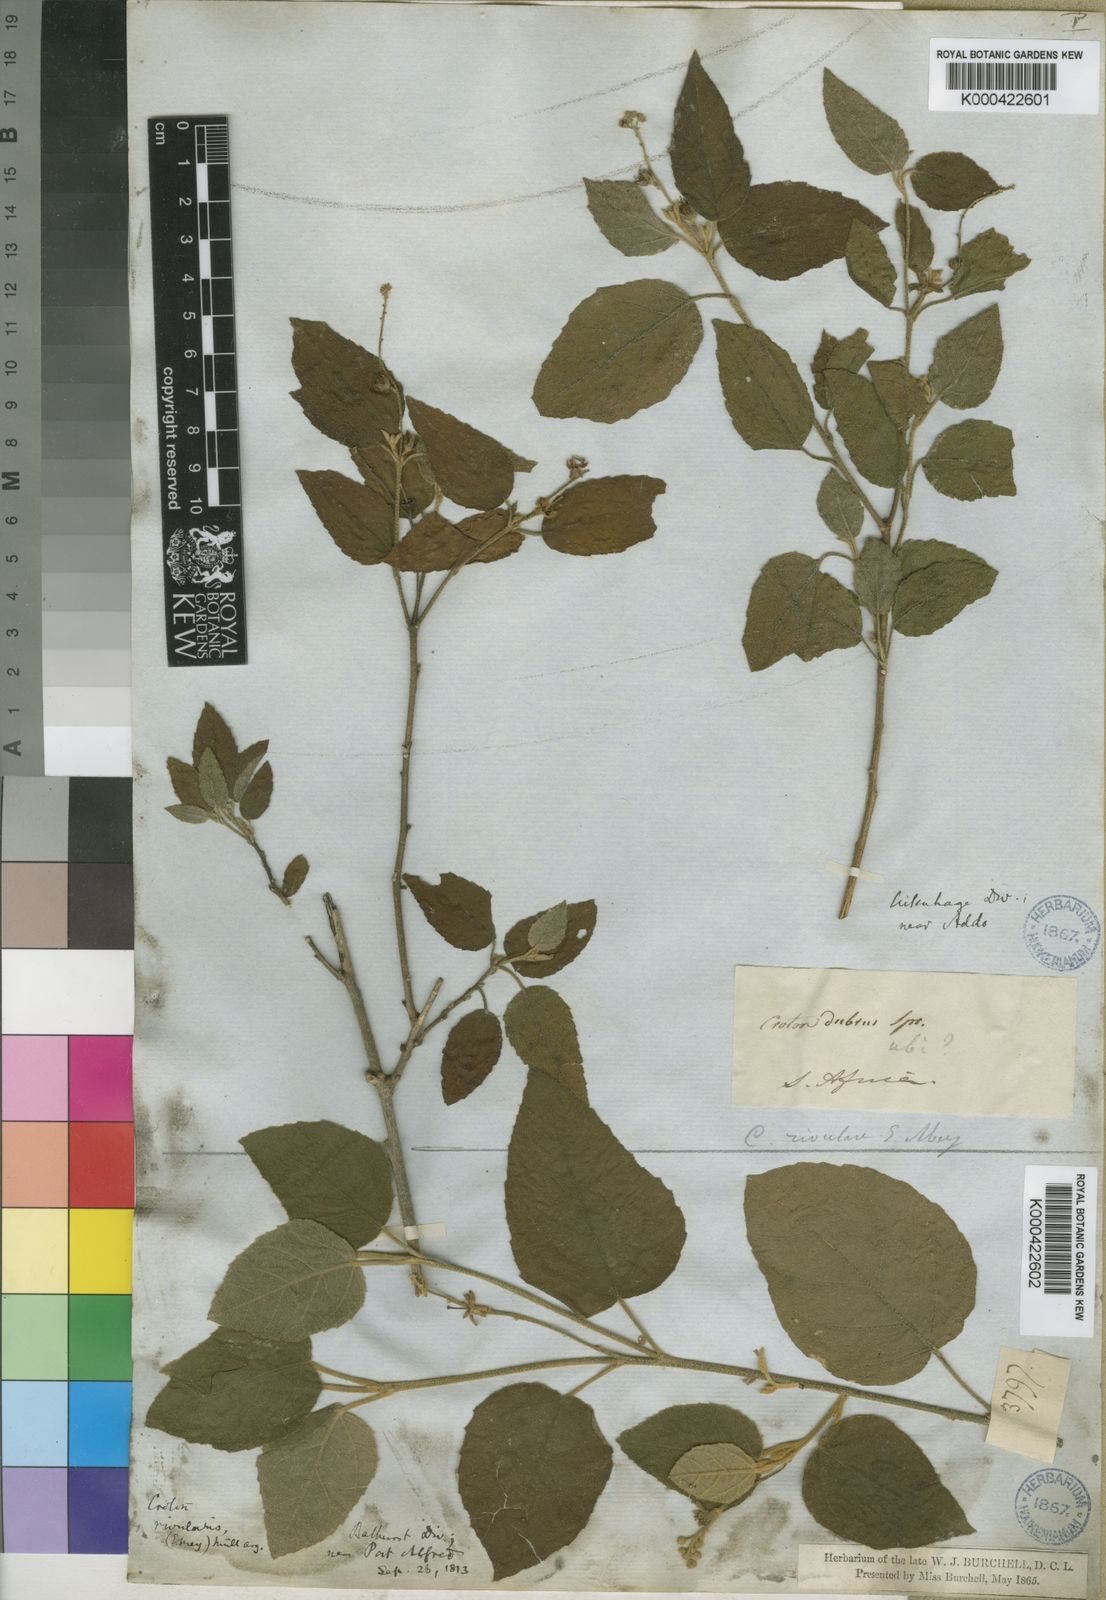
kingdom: Plantae
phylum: Tracheophyta
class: Magnoliopsida
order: Malpighiales
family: Euphorbiaceae
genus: Croton
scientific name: Croton
